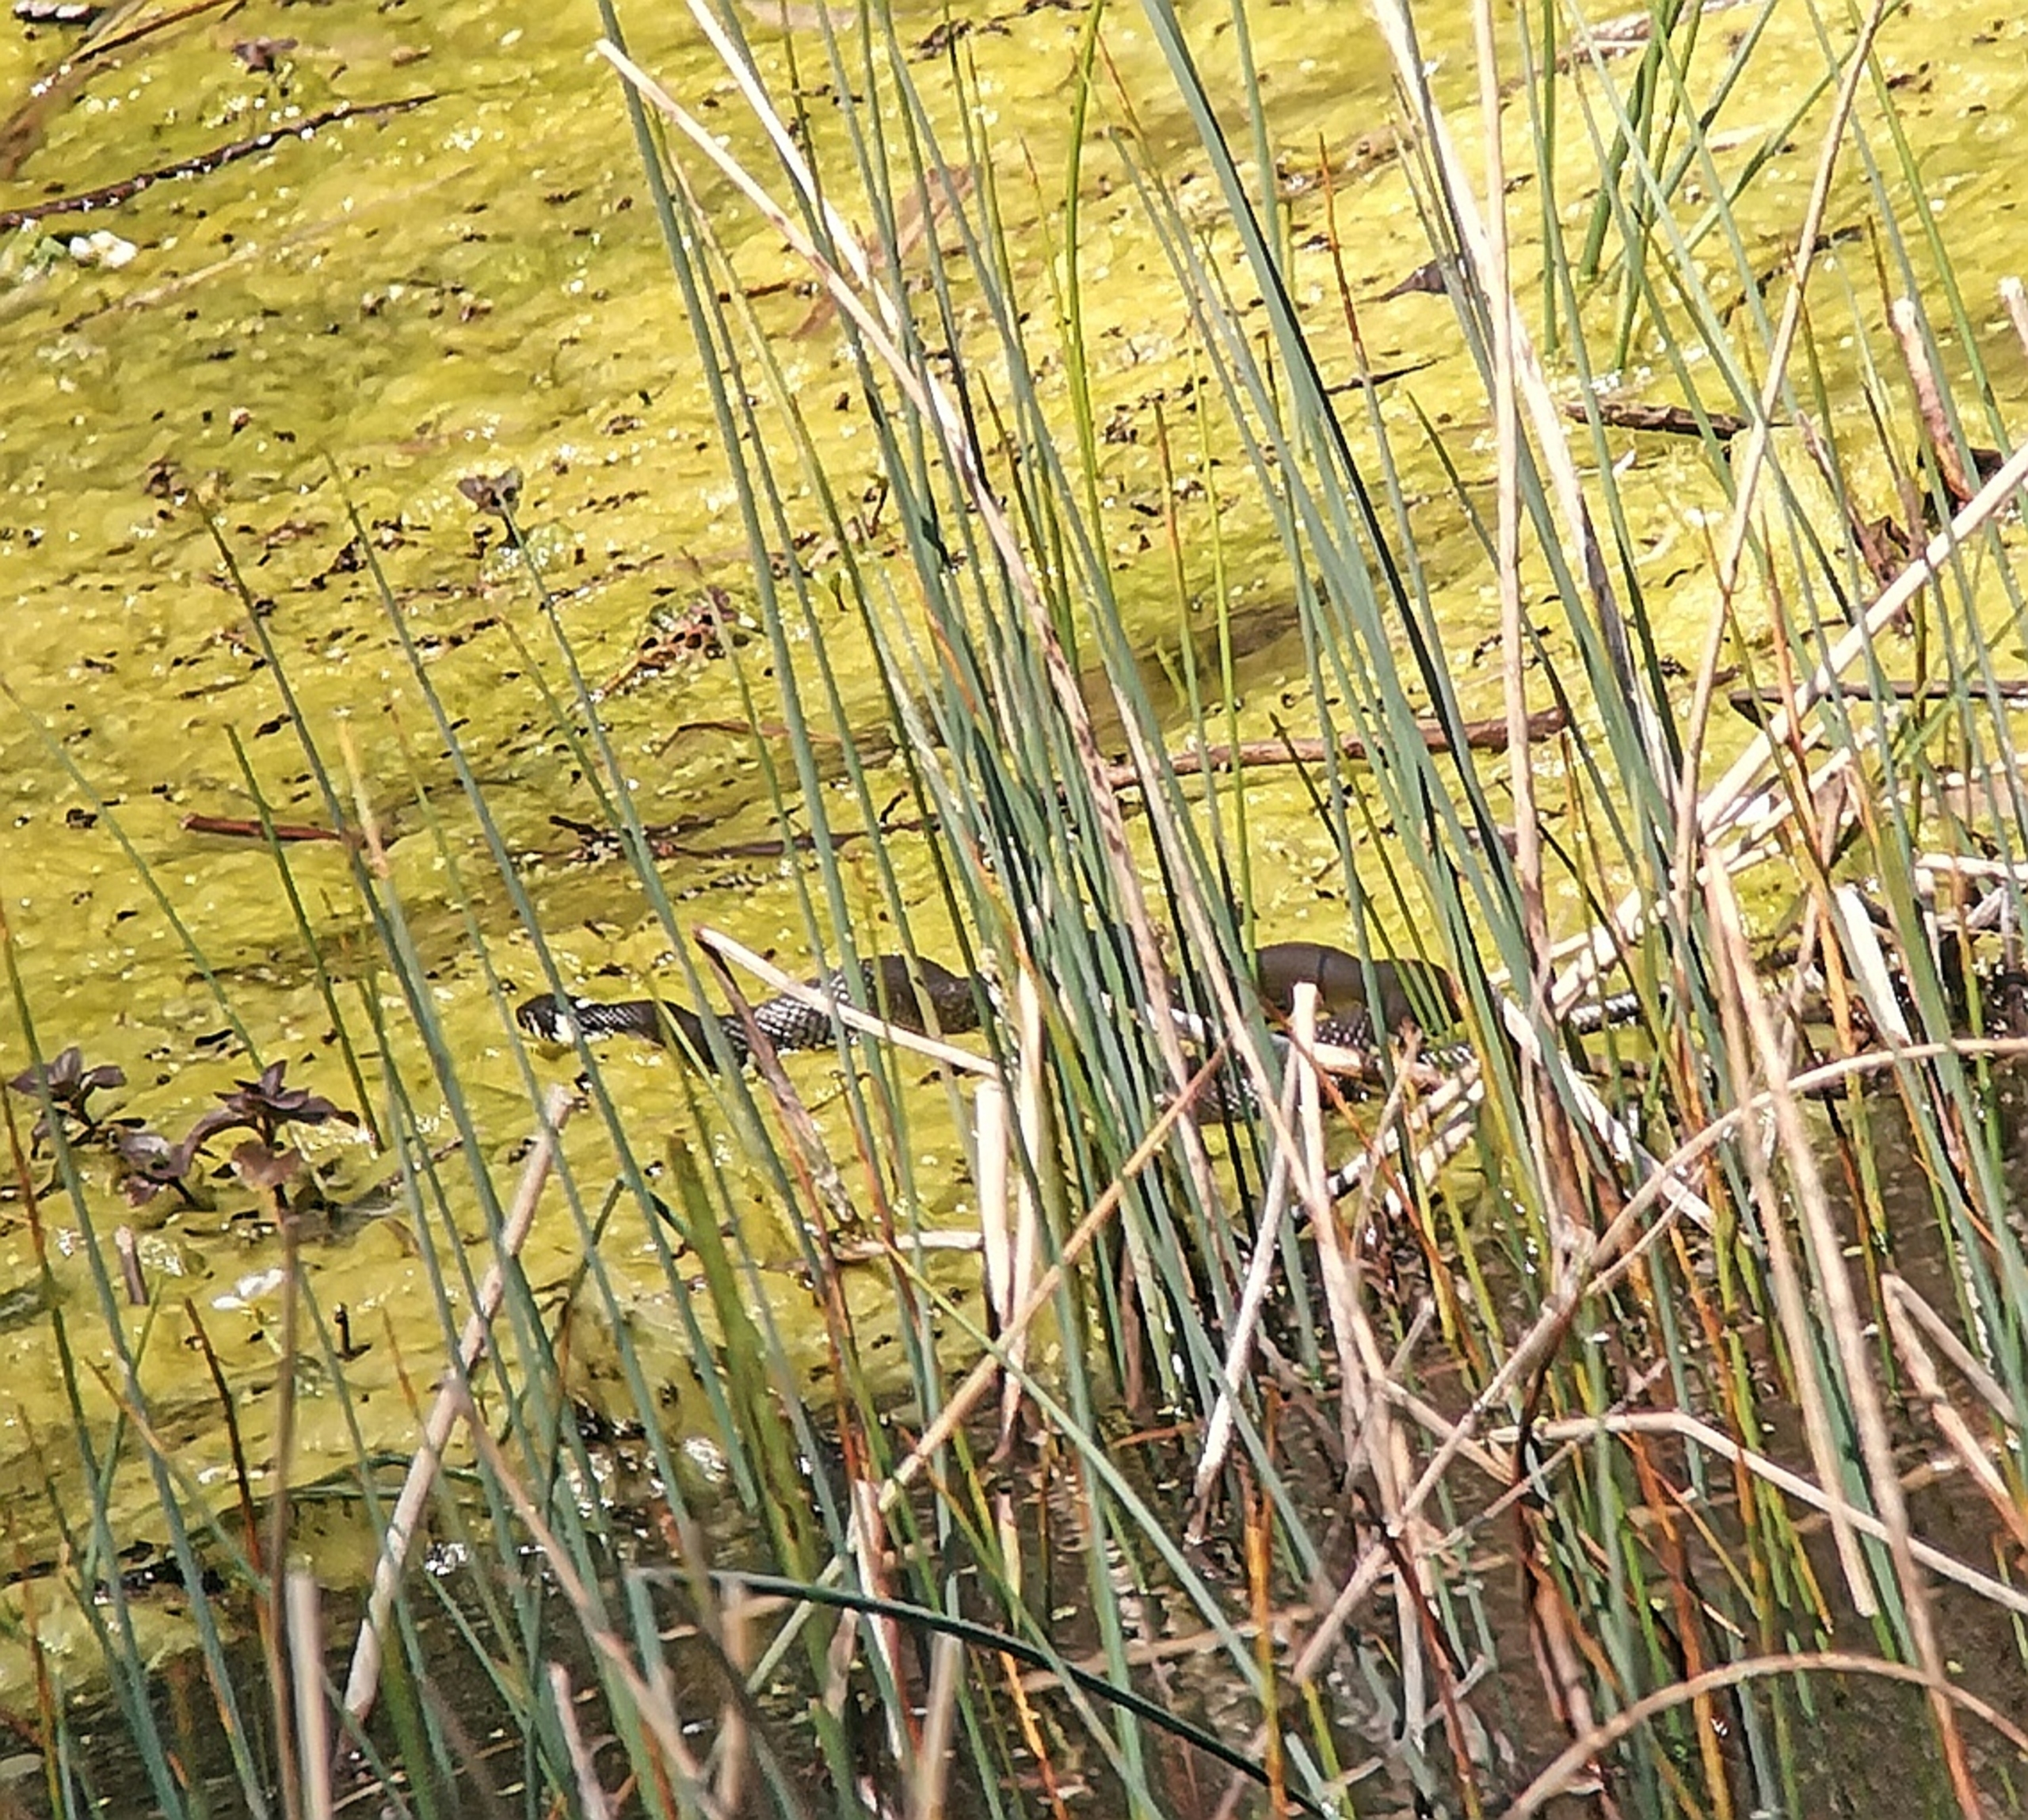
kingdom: Animalia
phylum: Chordata
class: Squamata
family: Colubridae
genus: Natrix
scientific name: Natrix natrix
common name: Snog
